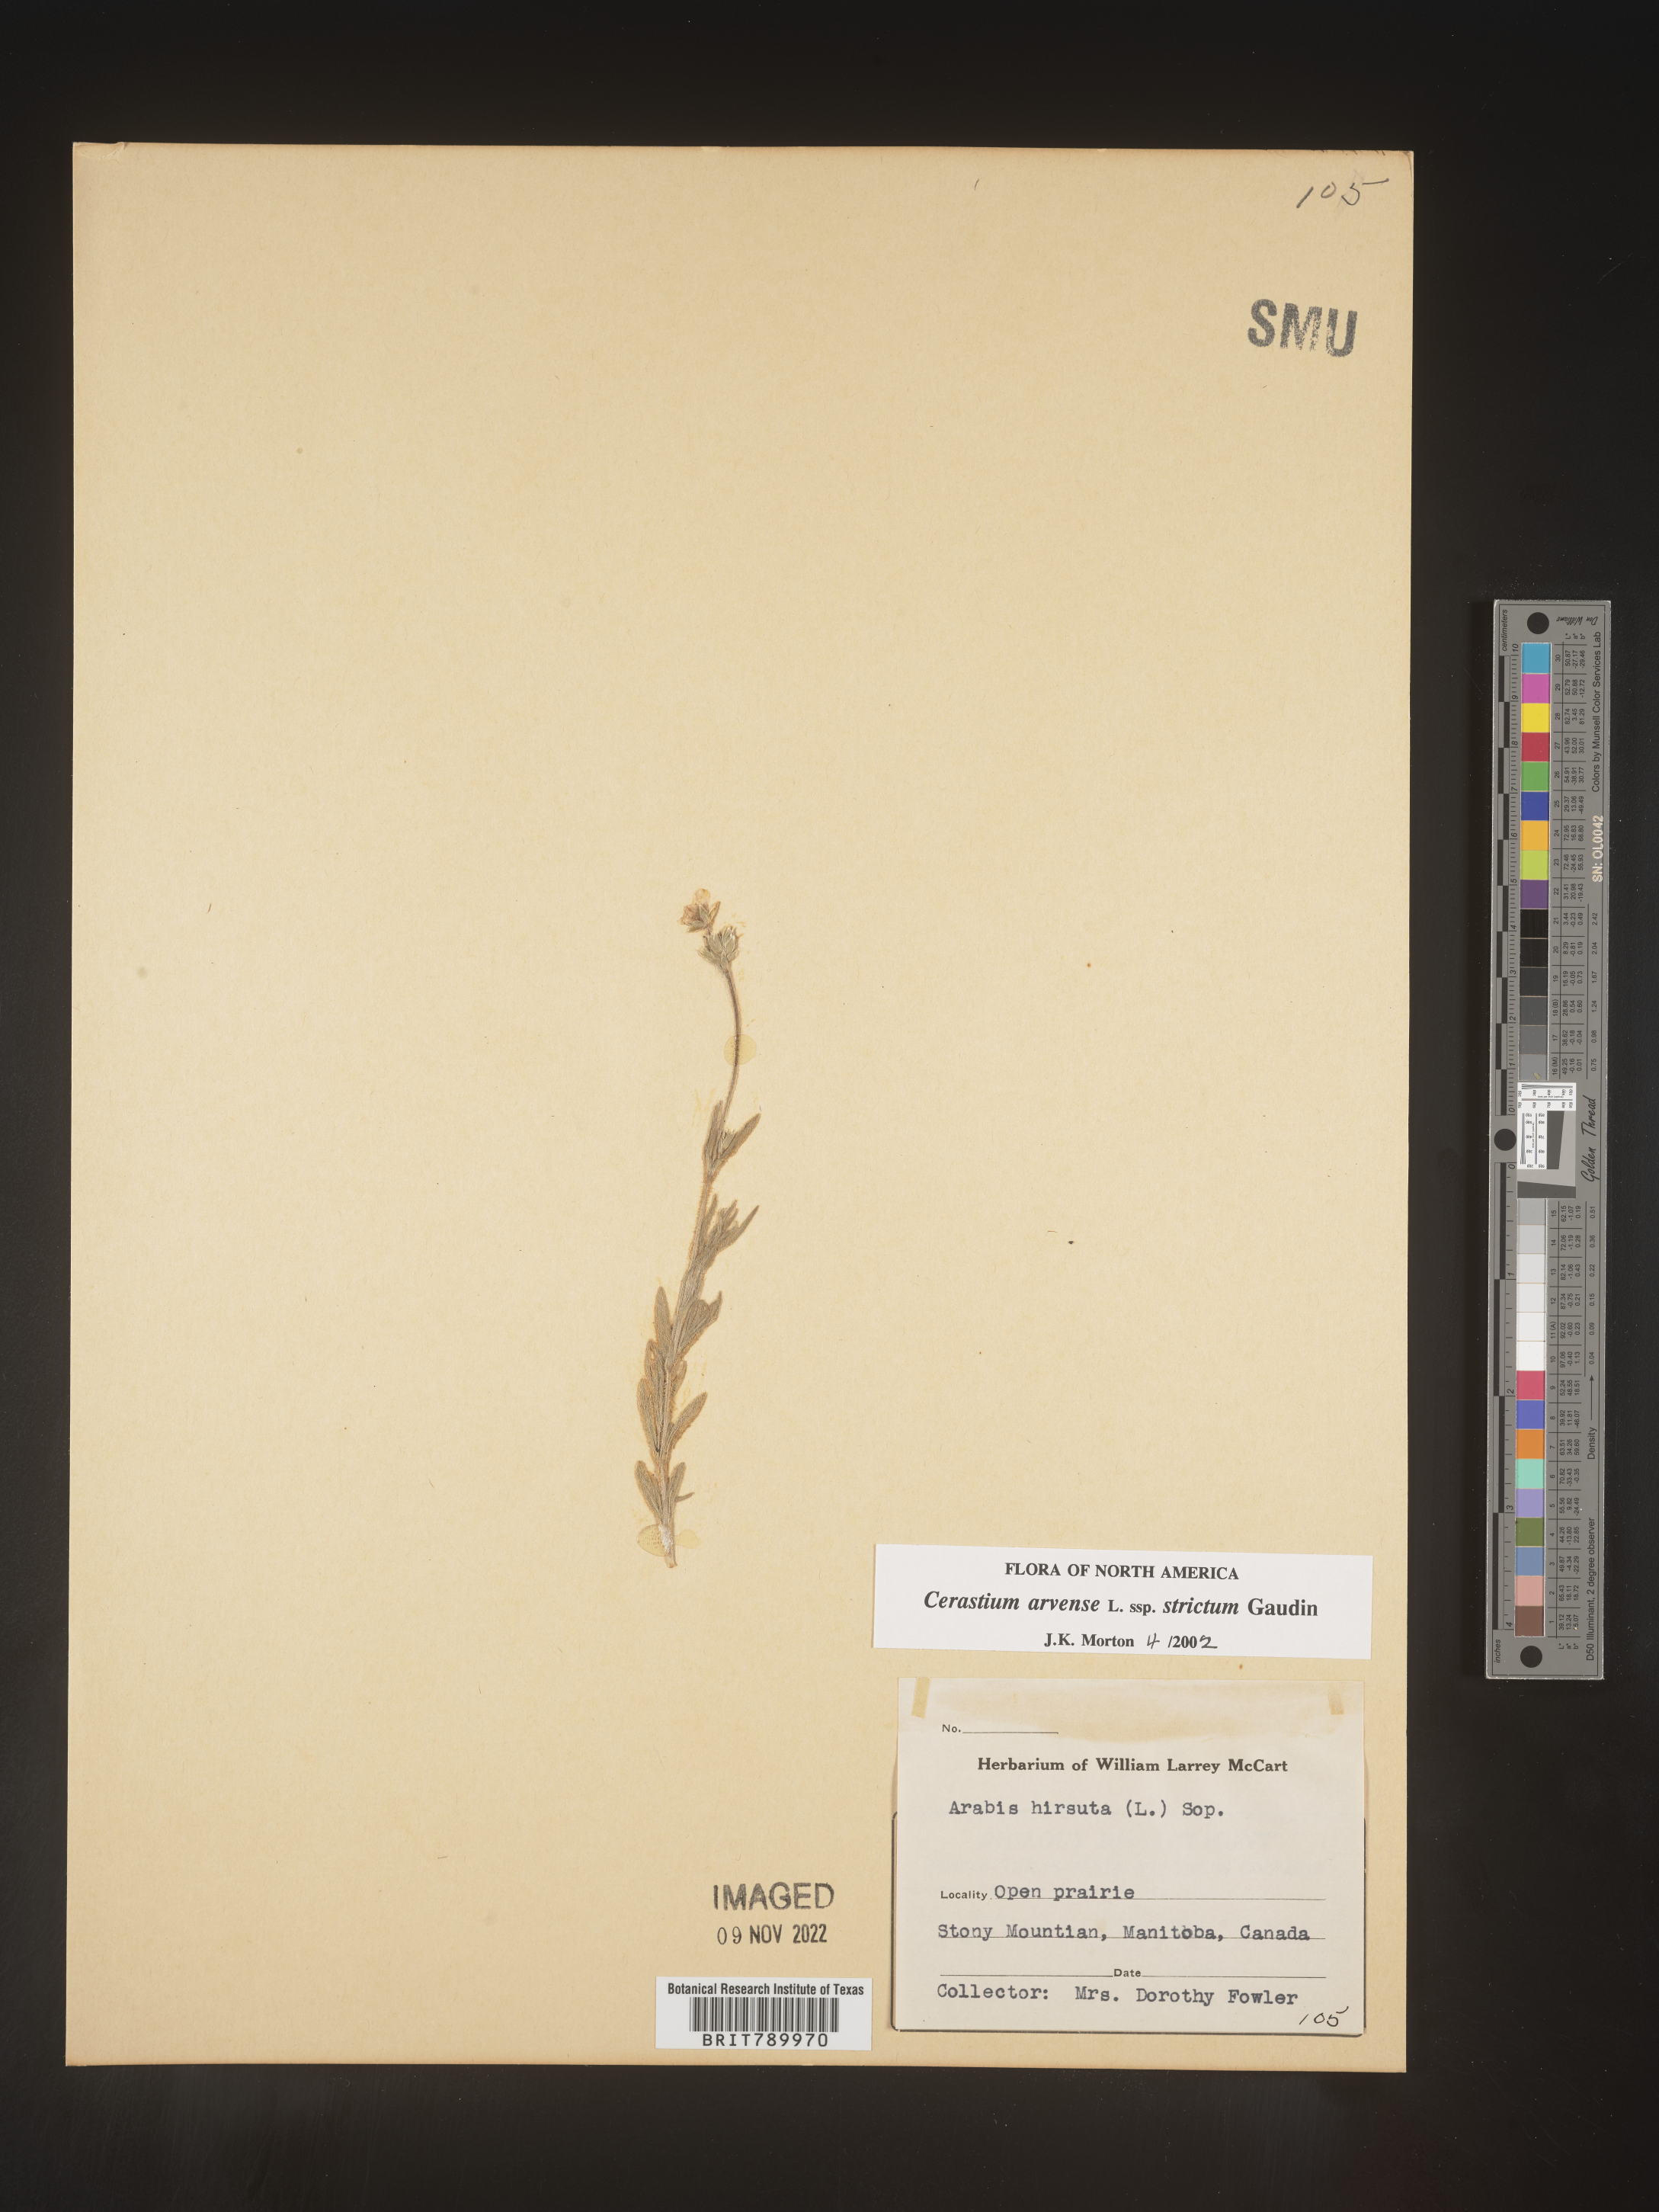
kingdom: Plantae
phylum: Tracheophyta
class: Magnoliopsida
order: Caryophyllales
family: Caryophyllaceae
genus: Cerastium
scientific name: Cerastium arvense
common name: Field mouse-ear
